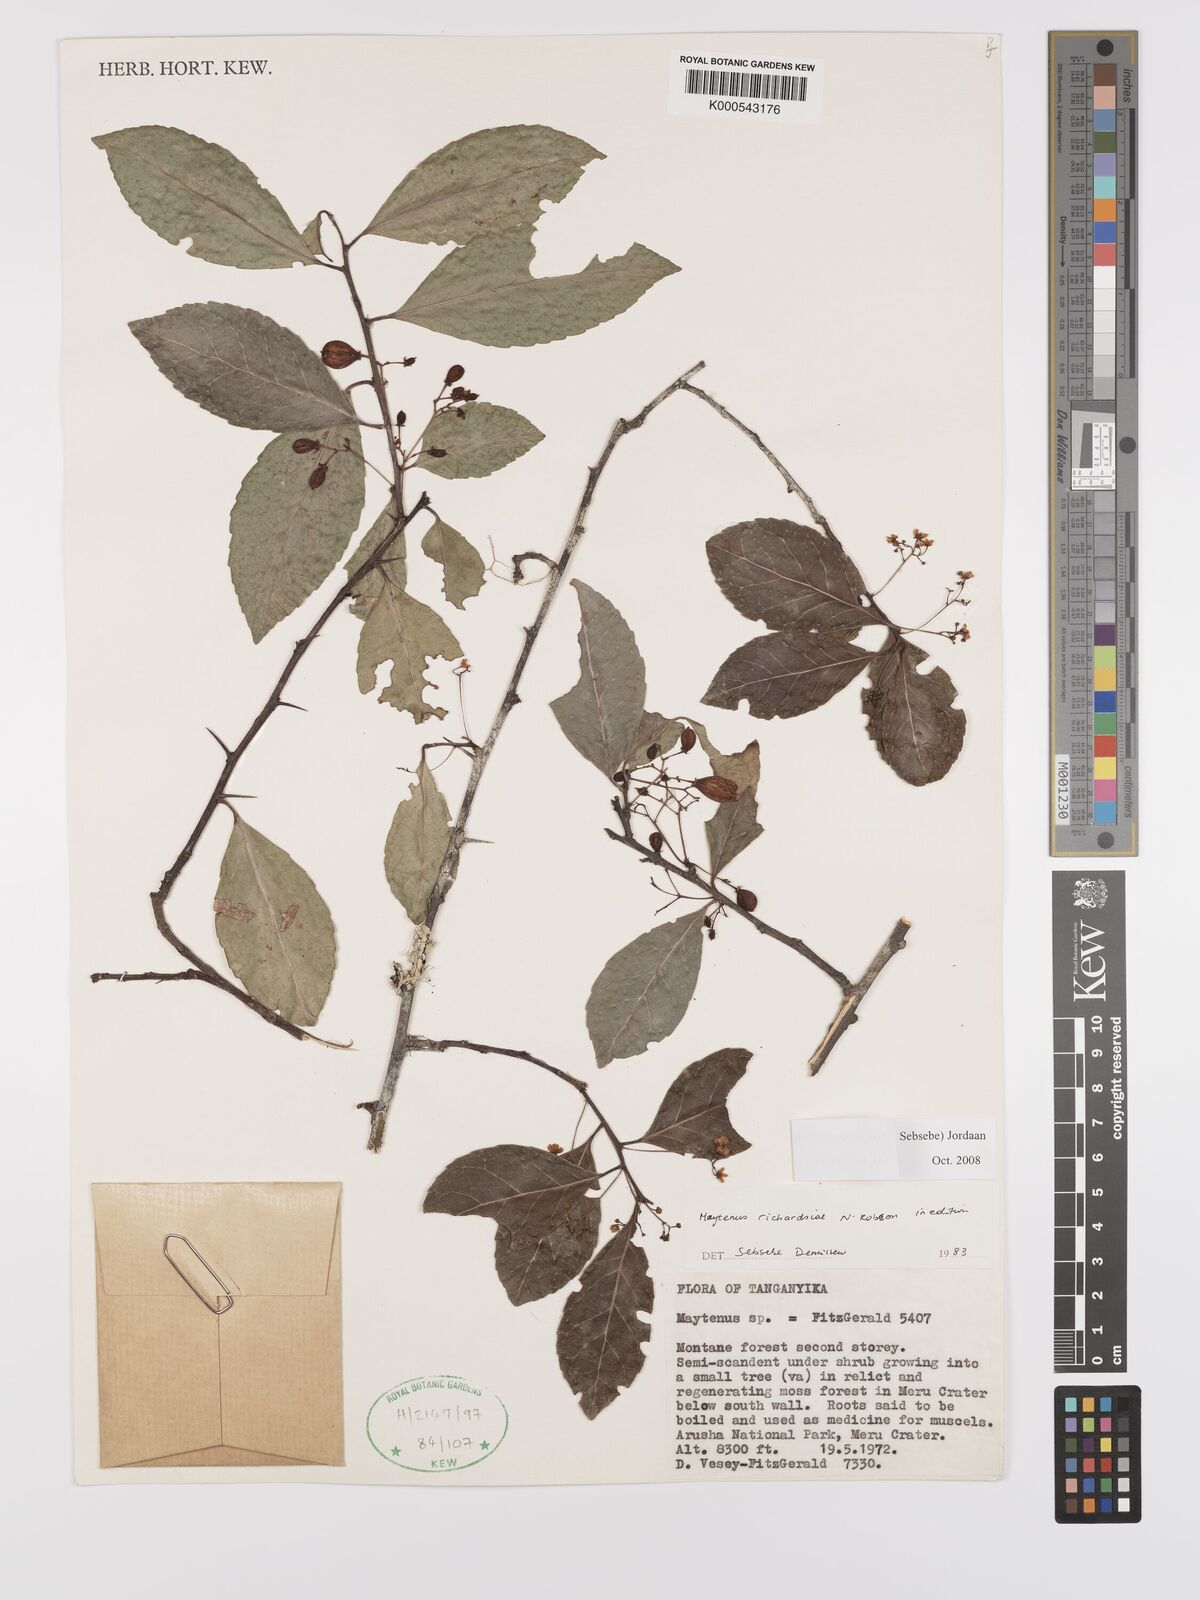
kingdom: Plantae
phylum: Tracheophyta
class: Magnoliopsida
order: Celastrales
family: Celastraceae
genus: Gymnosporia
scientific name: Gymnosporia richardsiae
